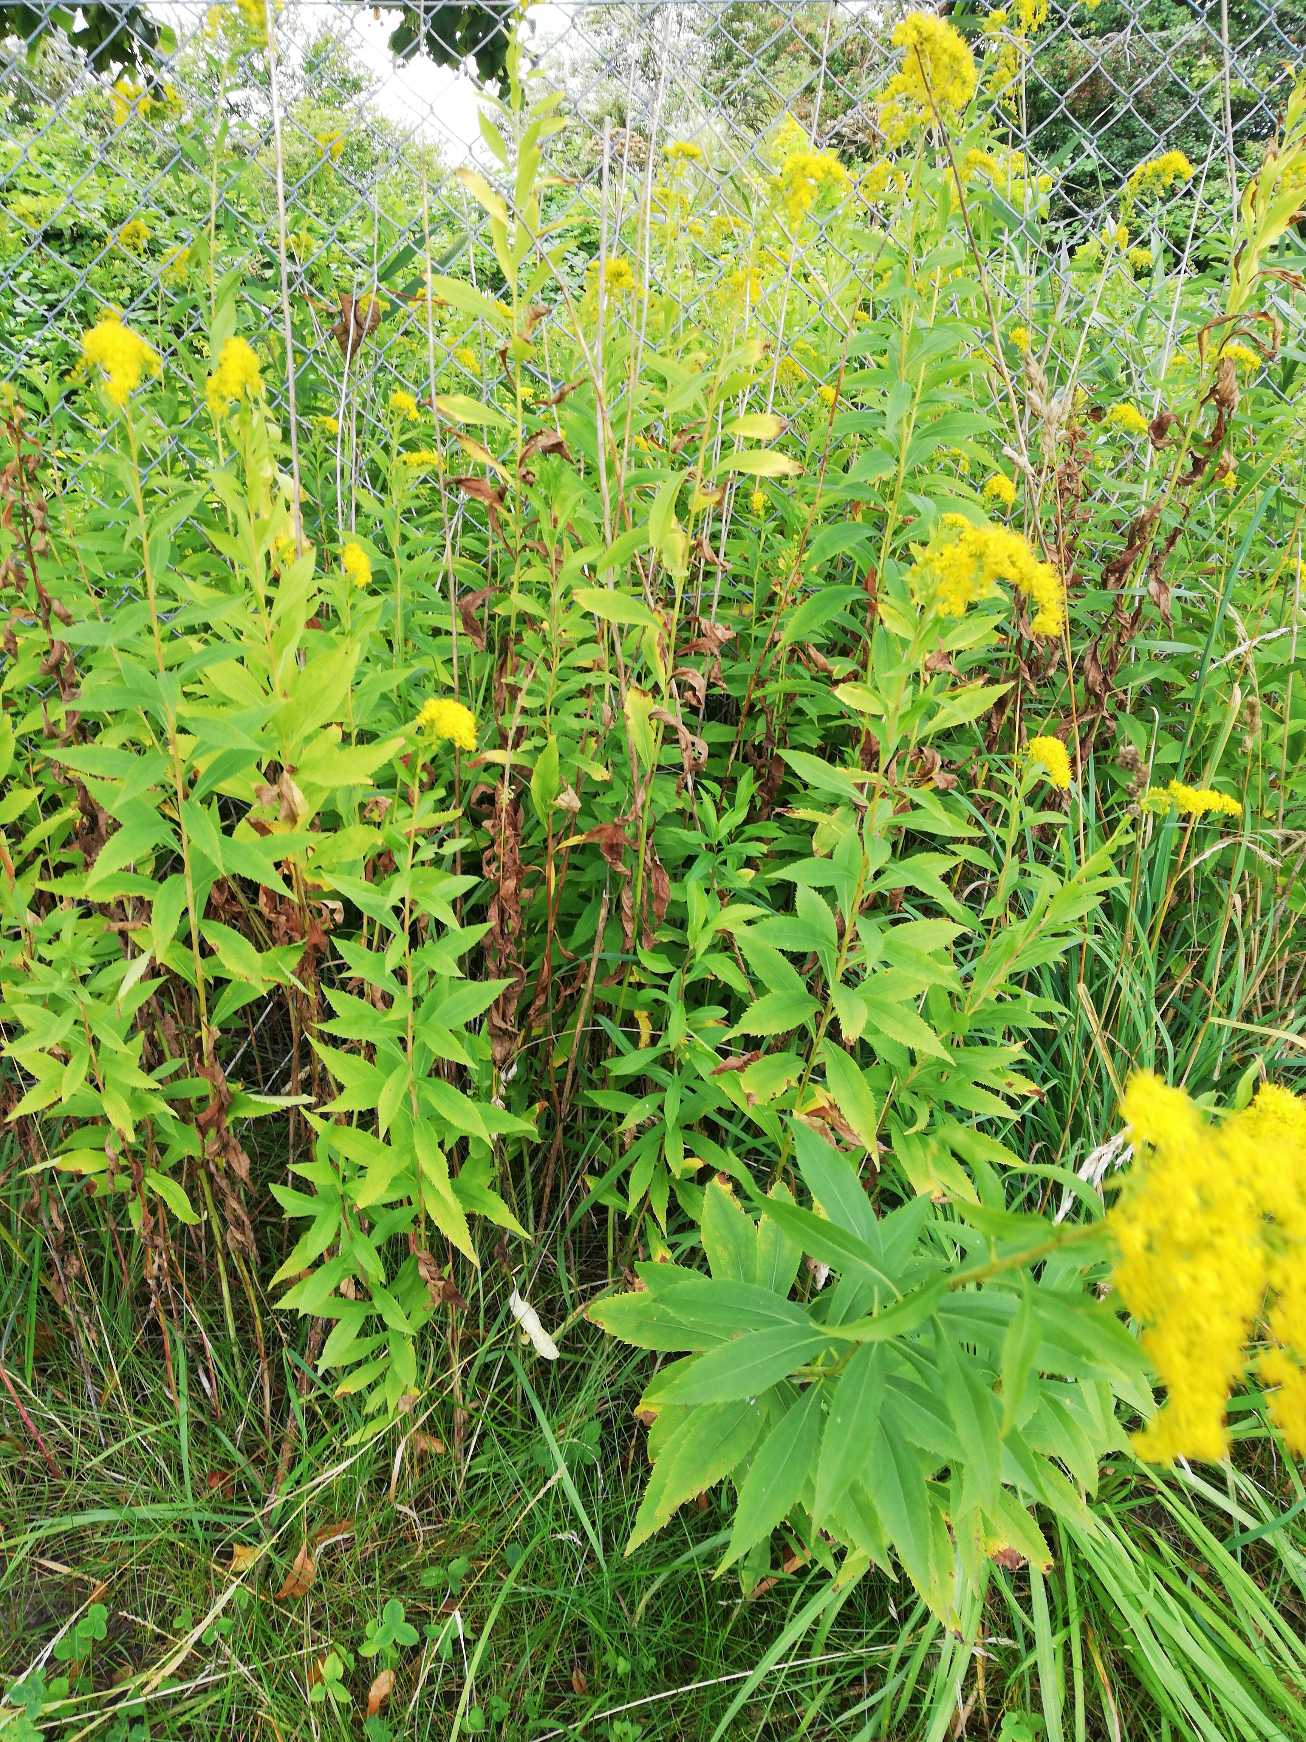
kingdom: Plantae
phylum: Tracheophyta
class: Magnoliopsida
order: Asterales
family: Asteraceae
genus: Solidago
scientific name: Solidago gigantea
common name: Sildig gyldenris
